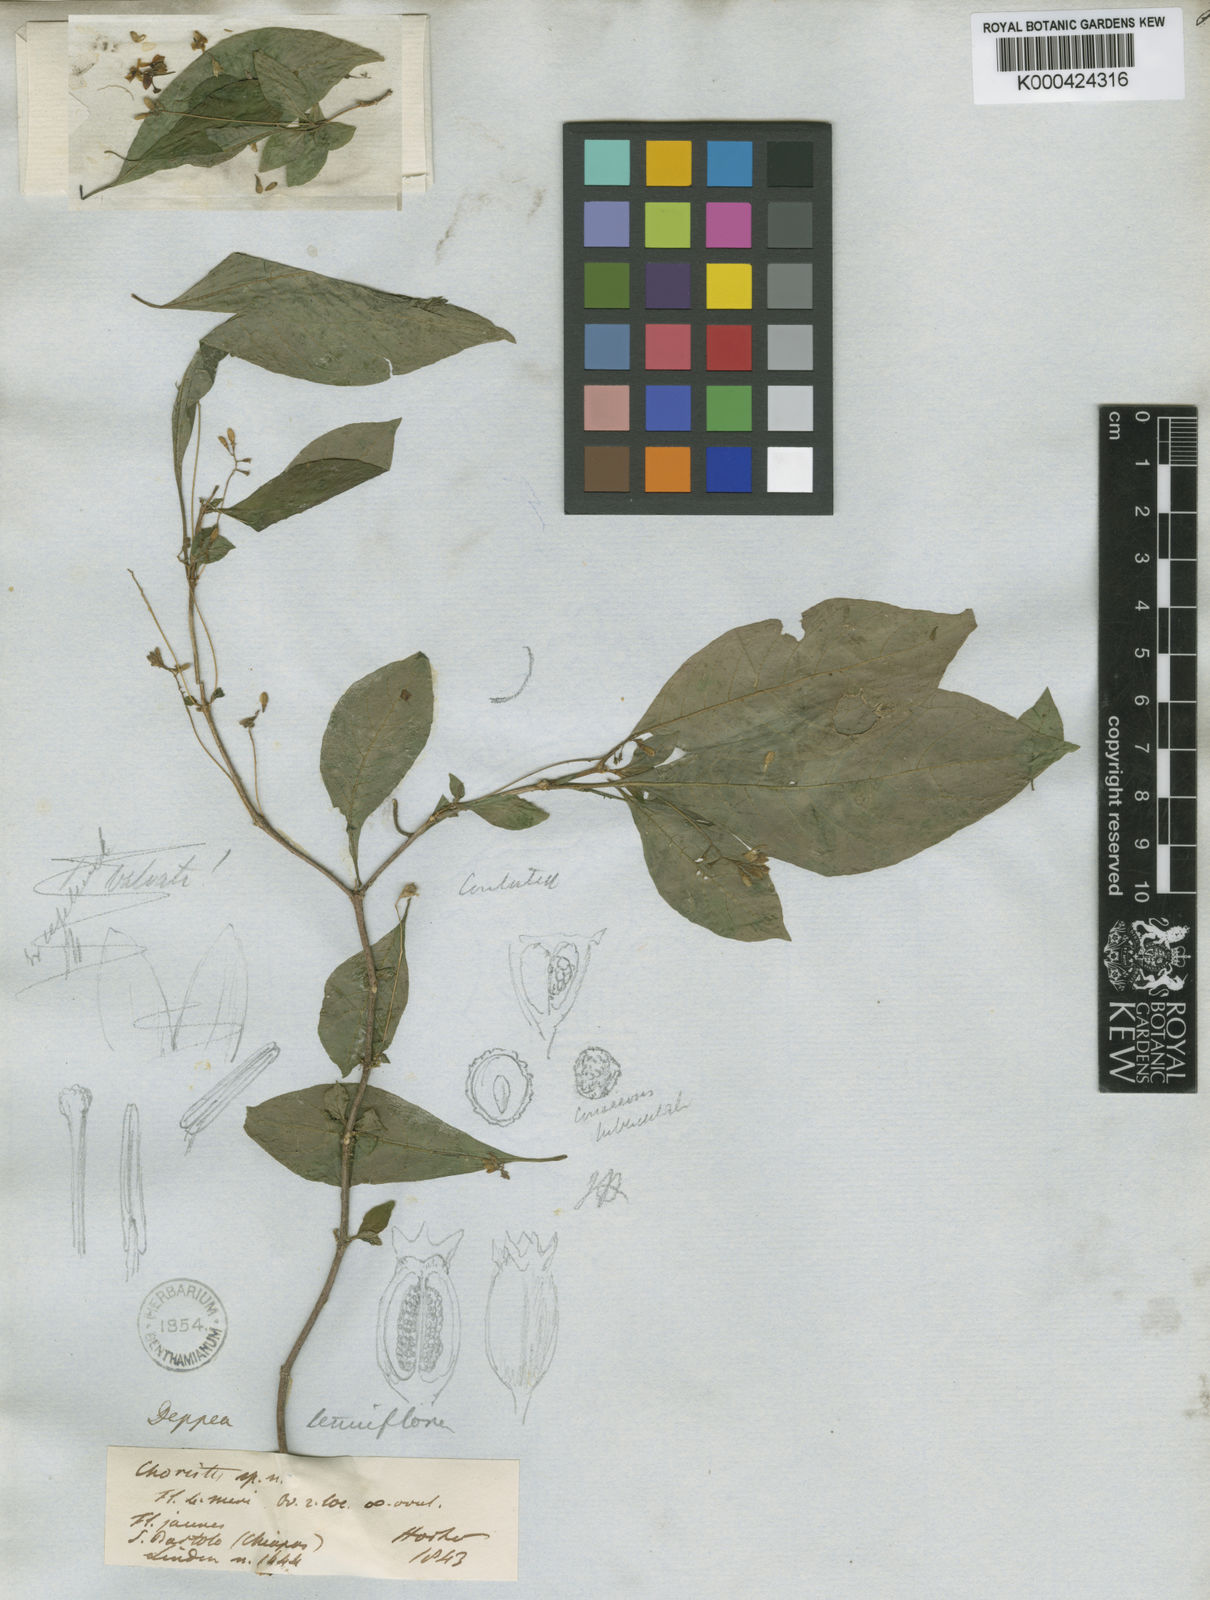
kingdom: Plantae
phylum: Tracheophyta
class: Magnoliopsida
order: Gentianales
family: Rubiaceae
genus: Deppea
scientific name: Deppea tenuiflora
